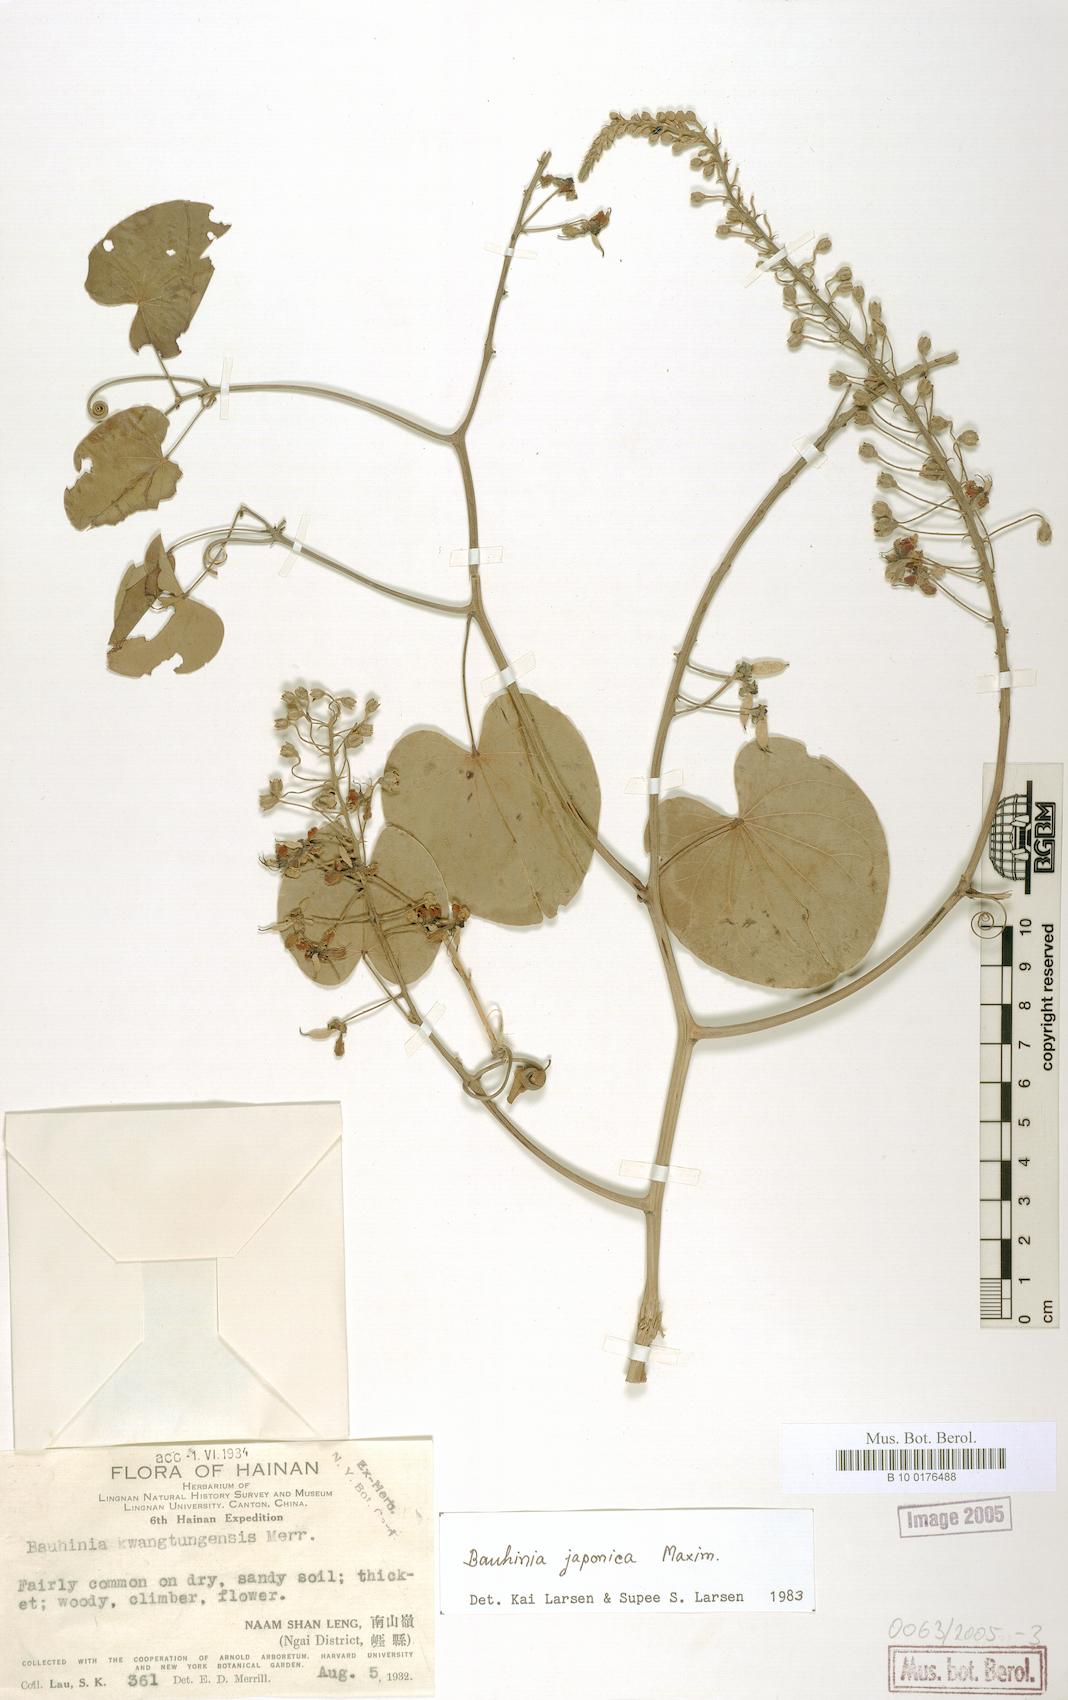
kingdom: Plantae
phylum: Tracheophyta
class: Magnoliopsida
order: Fabales
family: Fabaceae
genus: Phanera
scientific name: Phanera japonica
